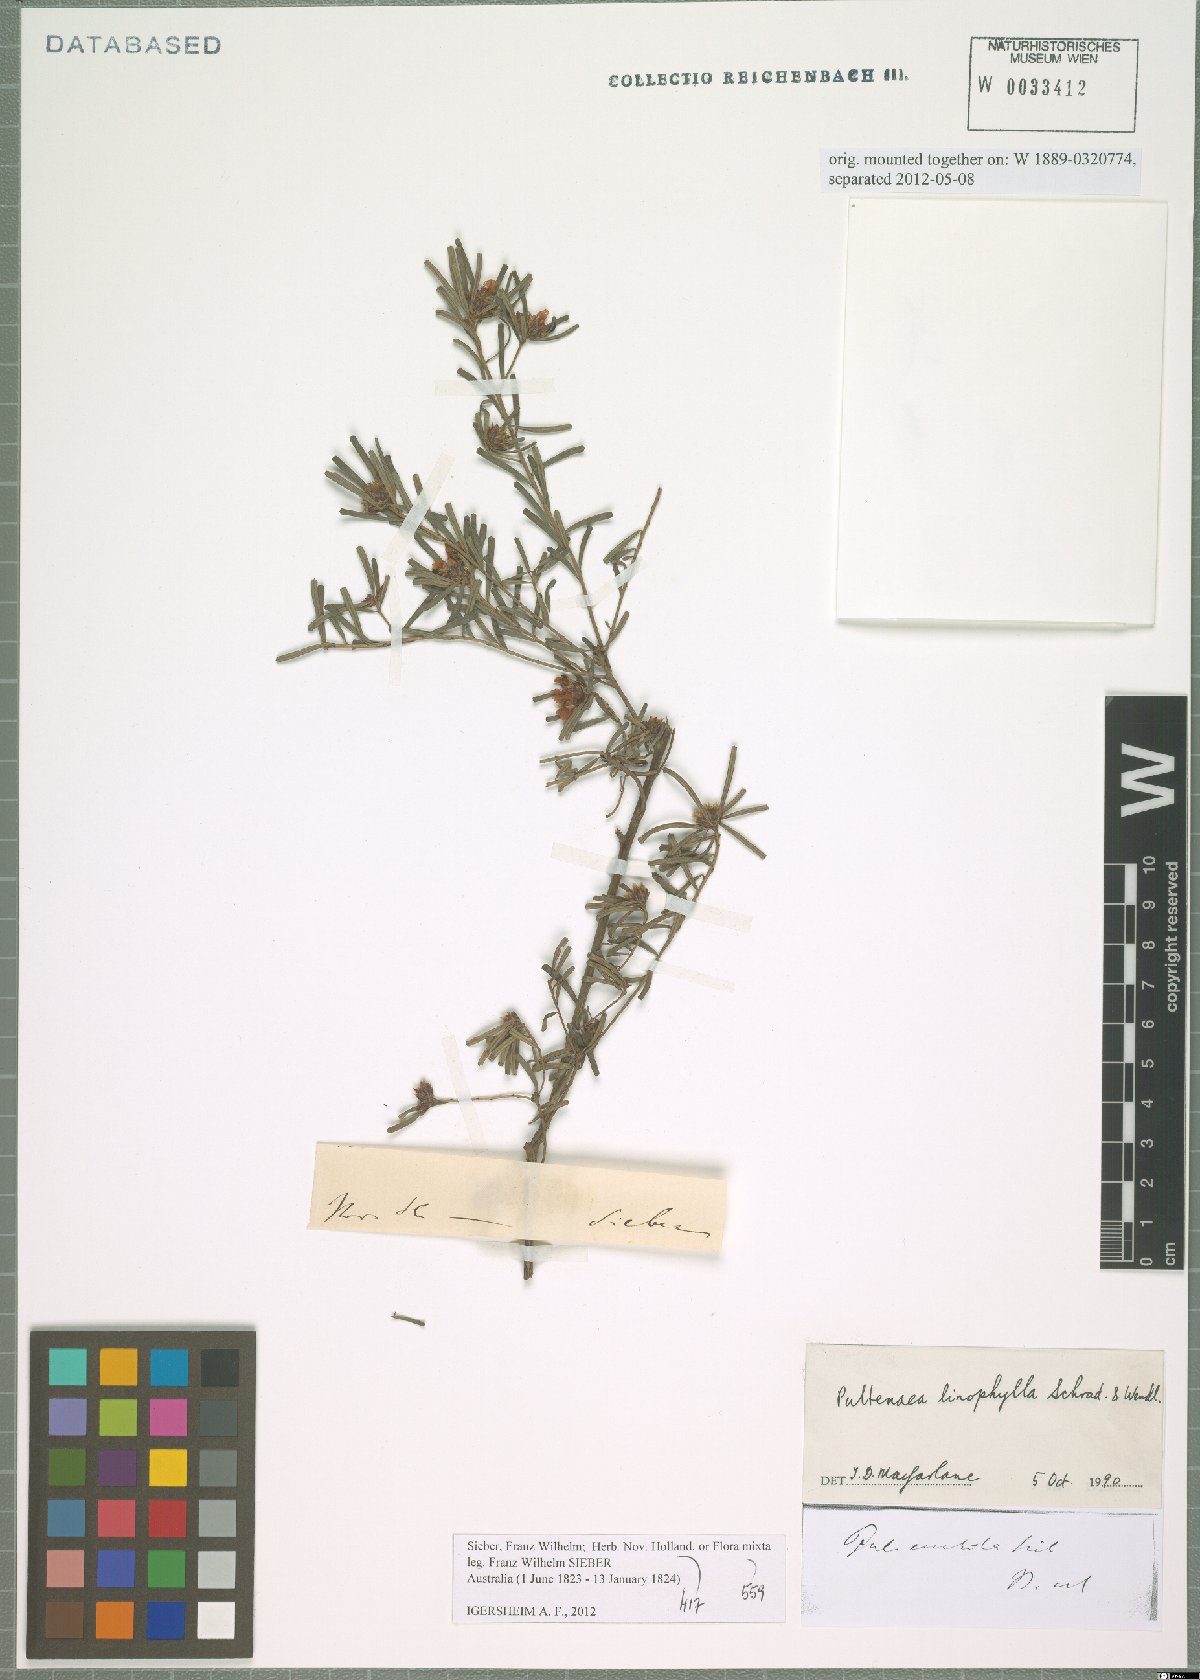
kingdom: Plantae
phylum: Tracheophyta
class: Magnoliopsida
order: Fabales
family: Fabaceae
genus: Pultenaea
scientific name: Pultenaea linophylla
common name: Halo bush-pea
